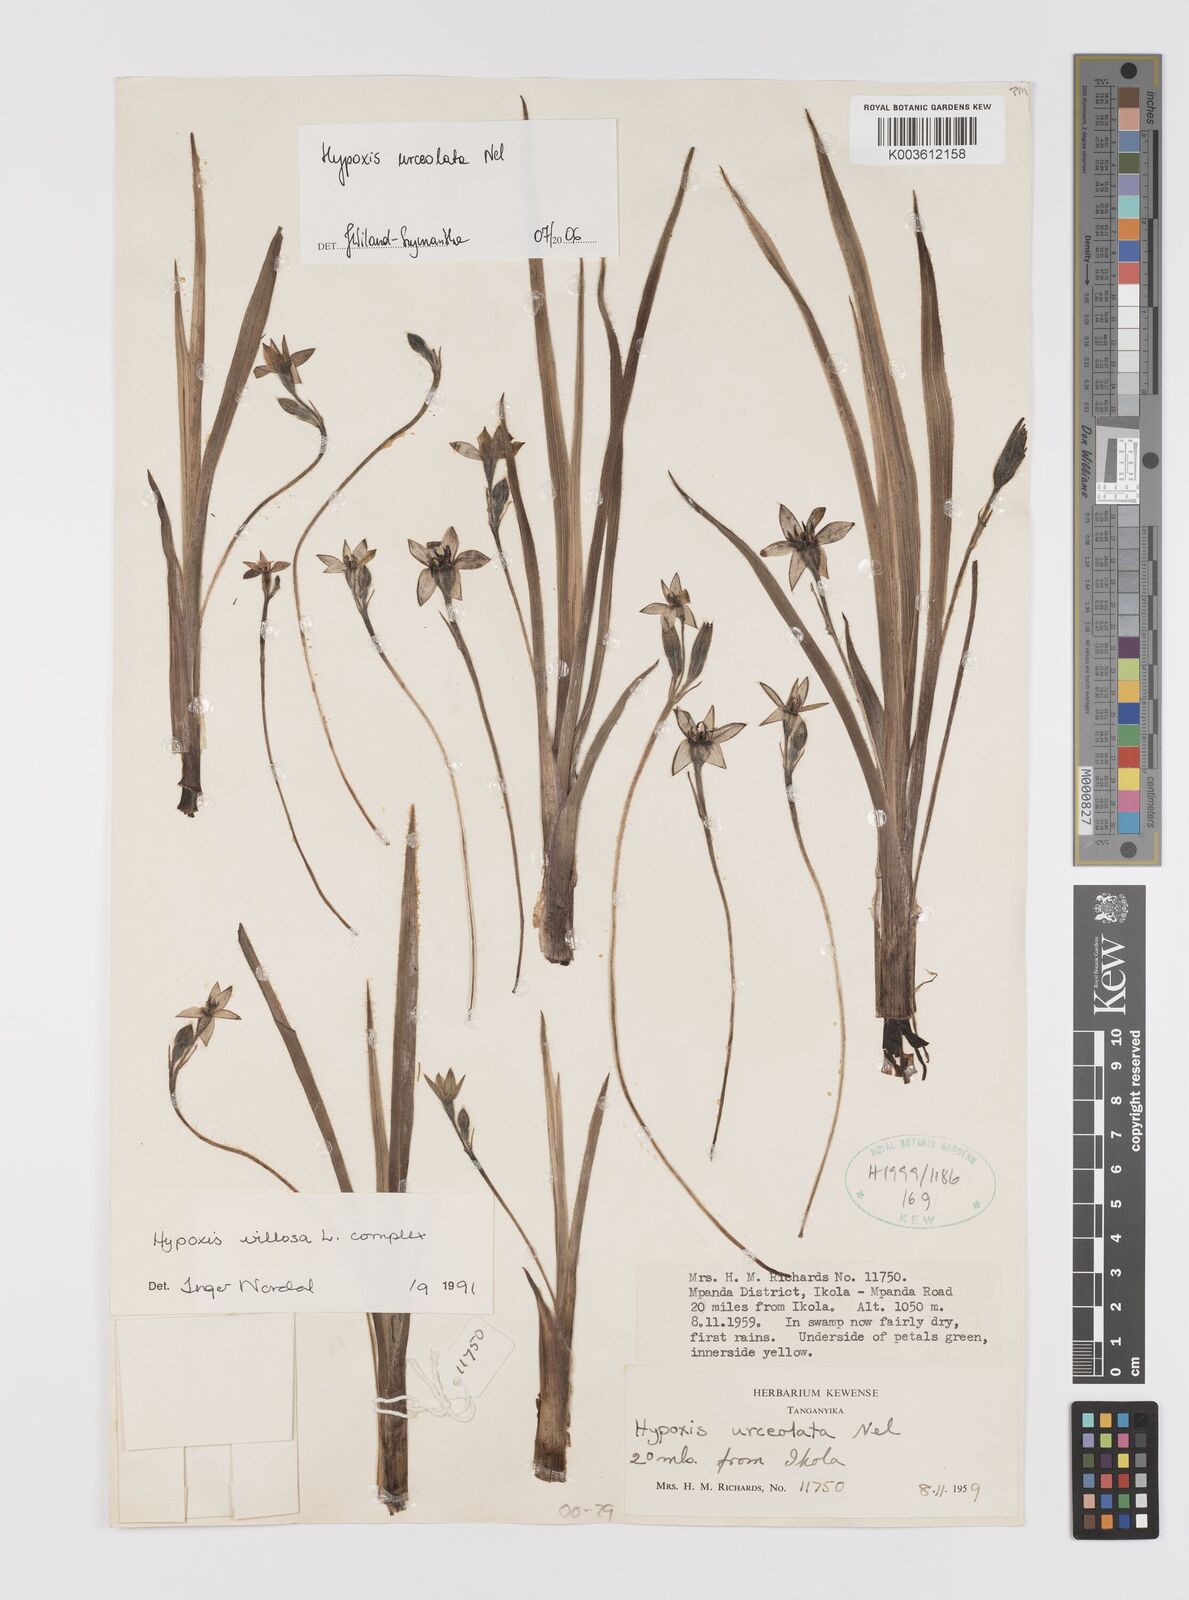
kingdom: Plantae
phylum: Tracheophyta
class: Liliopsida
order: Asparagales
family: Hypoxidaceae
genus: Hypoxis
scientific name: Hypoxis urceolata
